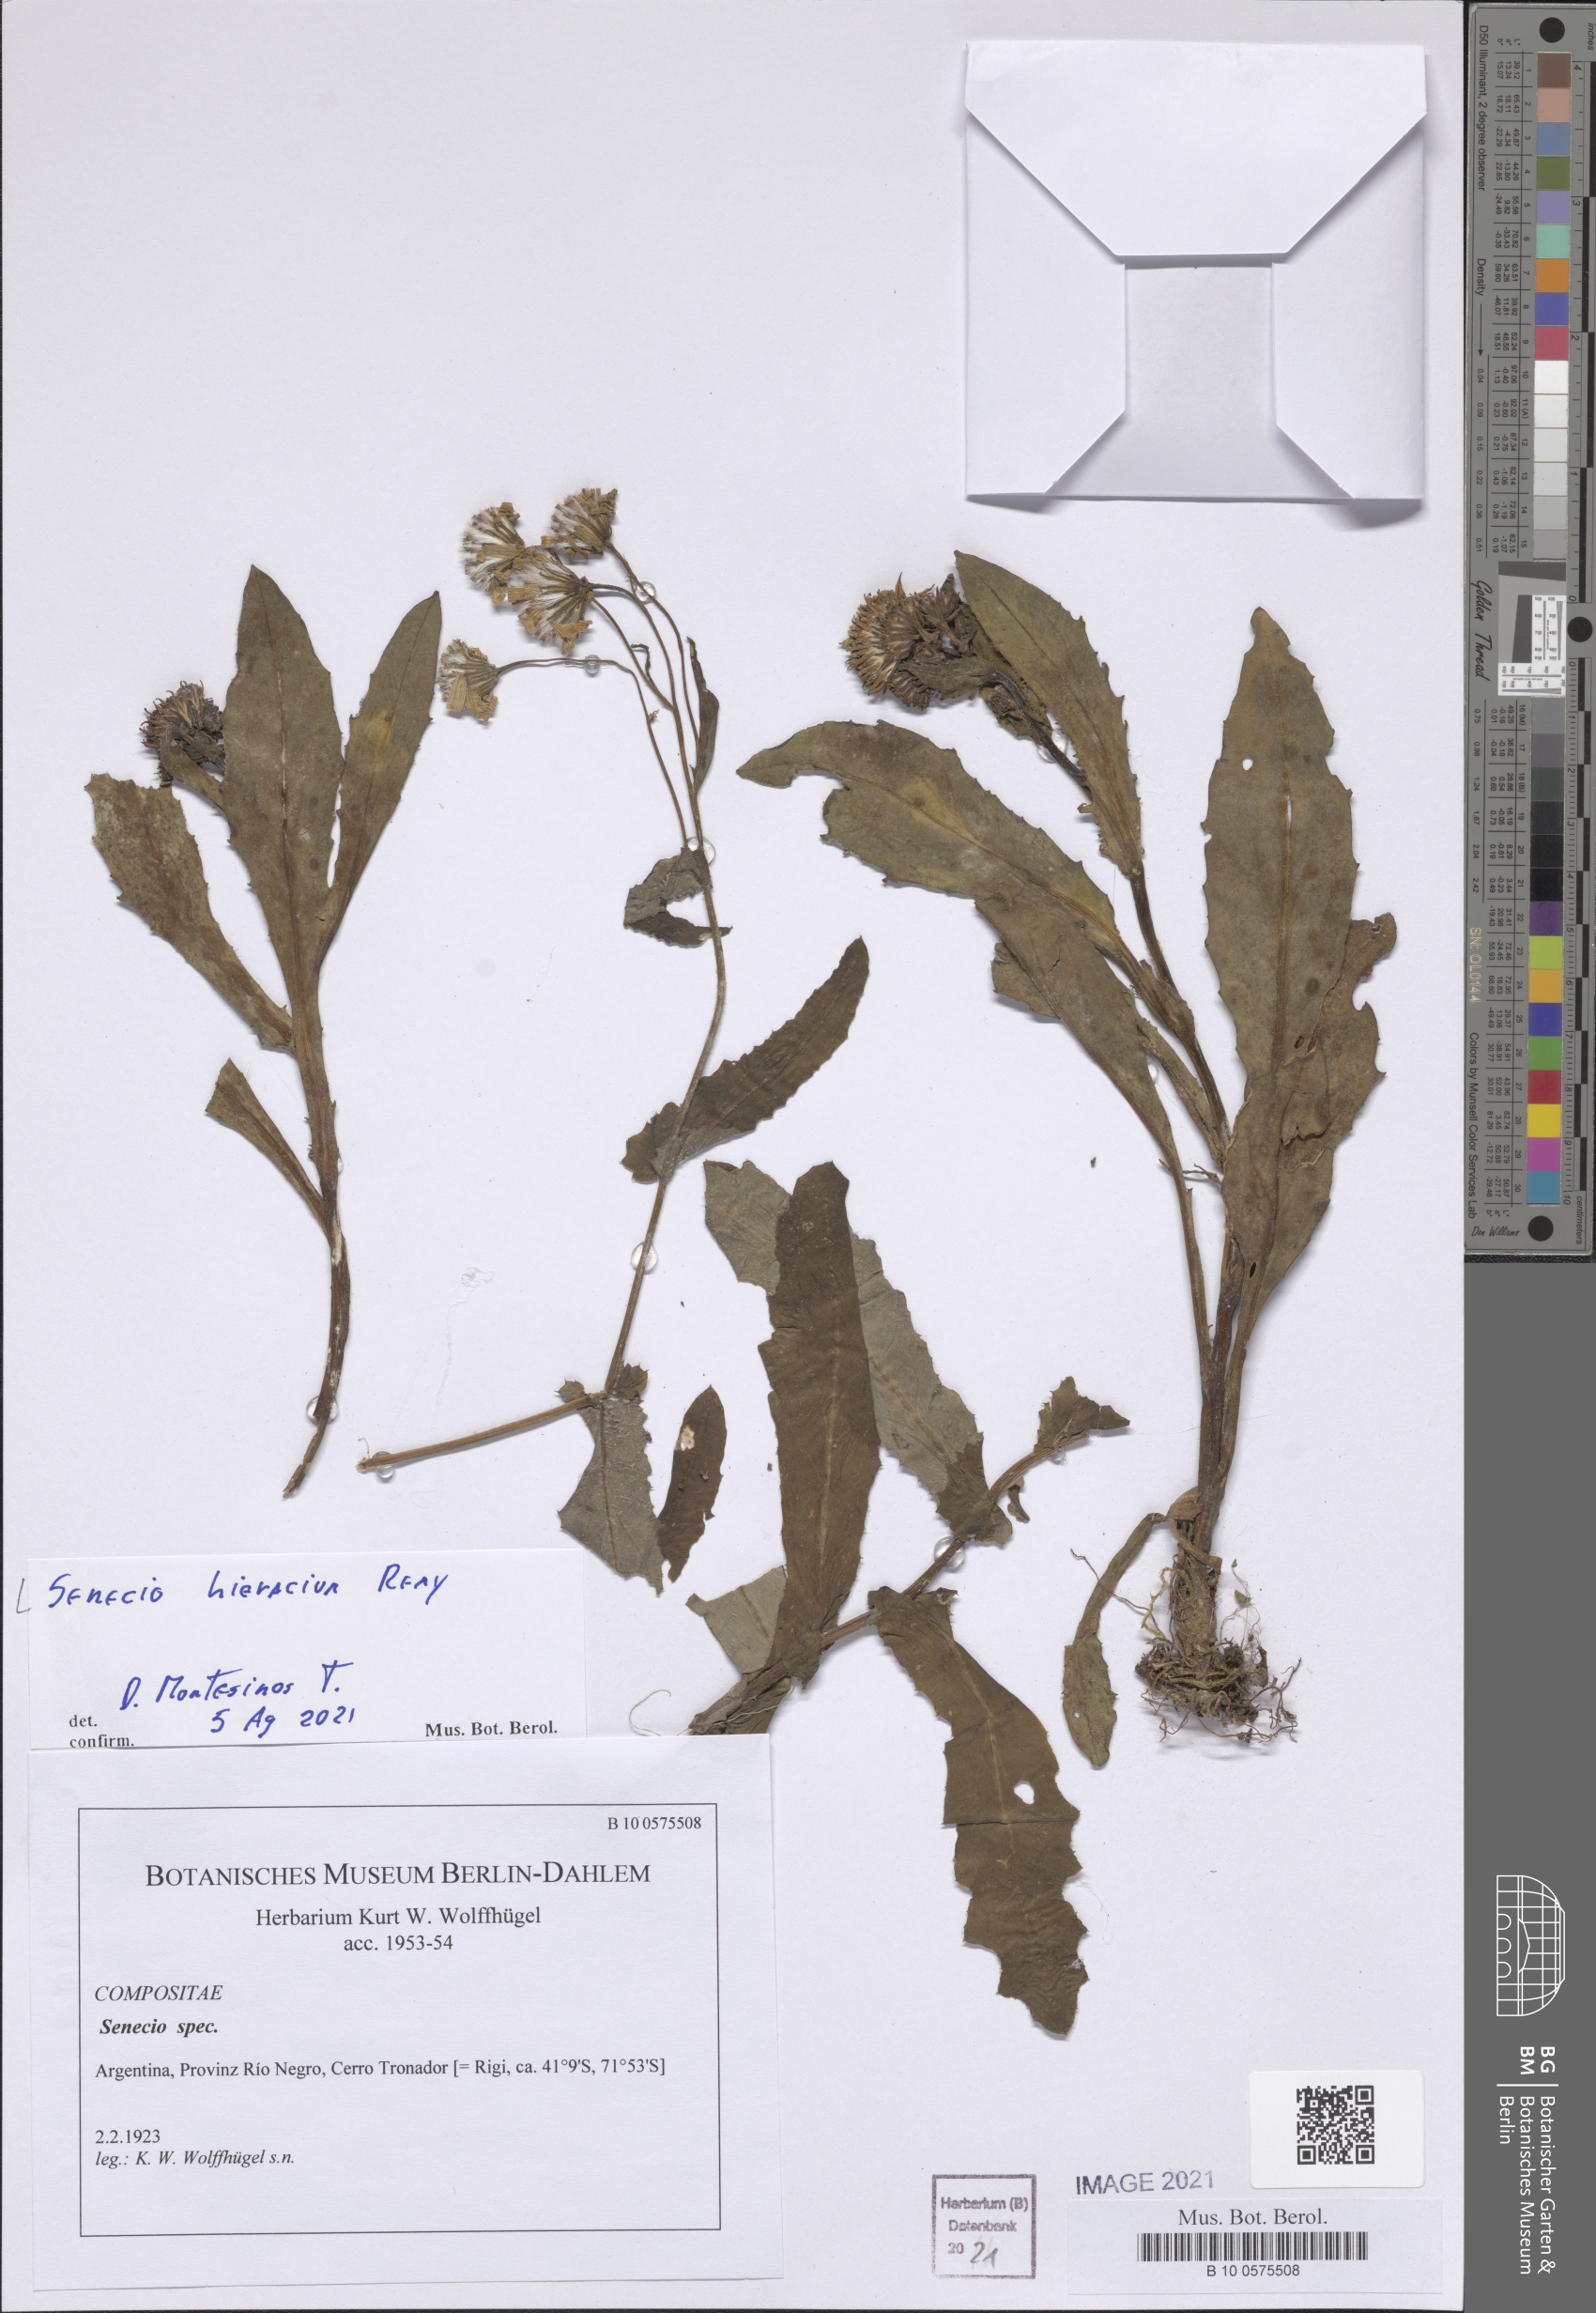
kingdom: Plantae
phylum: Tracheophyta
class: Magnoliopsida
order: Asterales
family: Asteraceae
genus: Senecio
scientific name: Senecio hieracium
